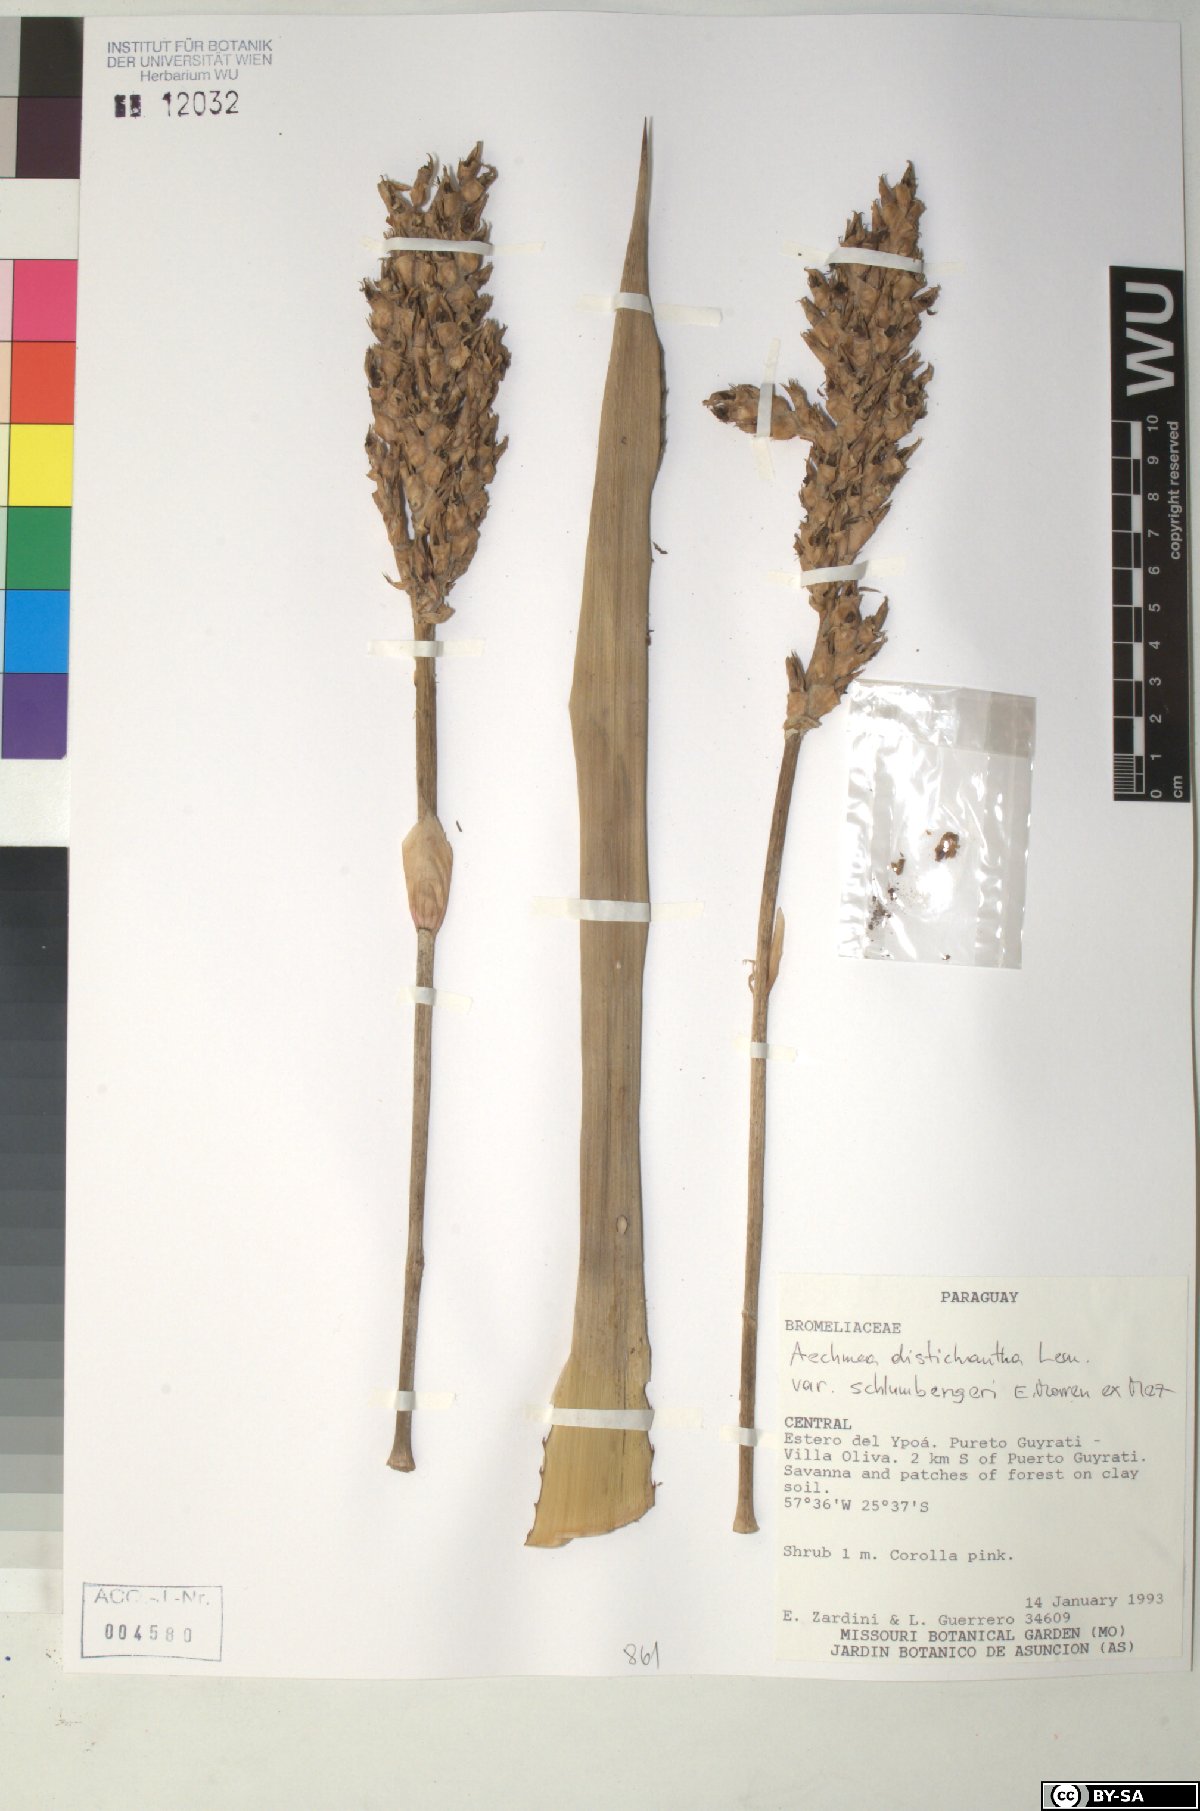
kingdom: Plantae
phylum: Tracheophyta
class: Liliopsida
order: Poales
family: Bromeliaceae
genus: Aechmea
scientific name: Aechmea distichantha
